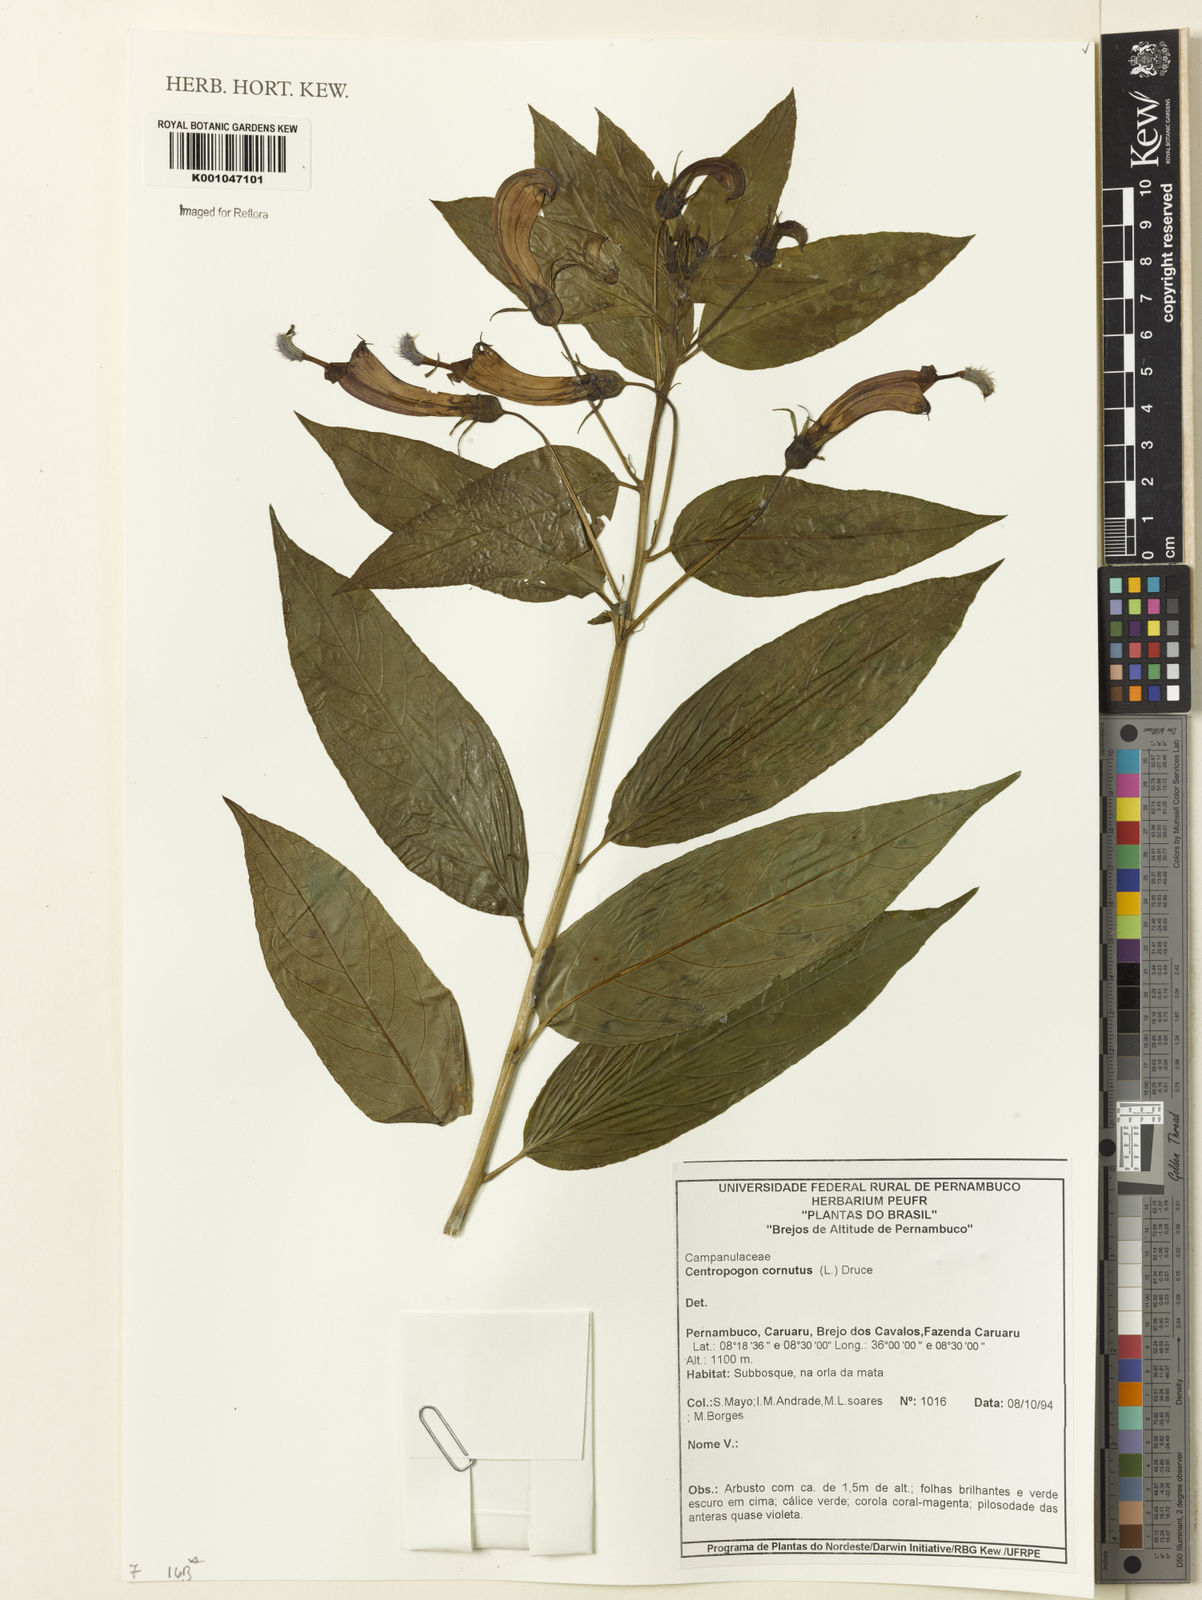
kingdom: Plantae
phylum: Tracheophyta
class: Magnoliopsida
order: Asterales
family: Campanulaceae
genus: Centropogon
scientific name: Centropogon cornutus
